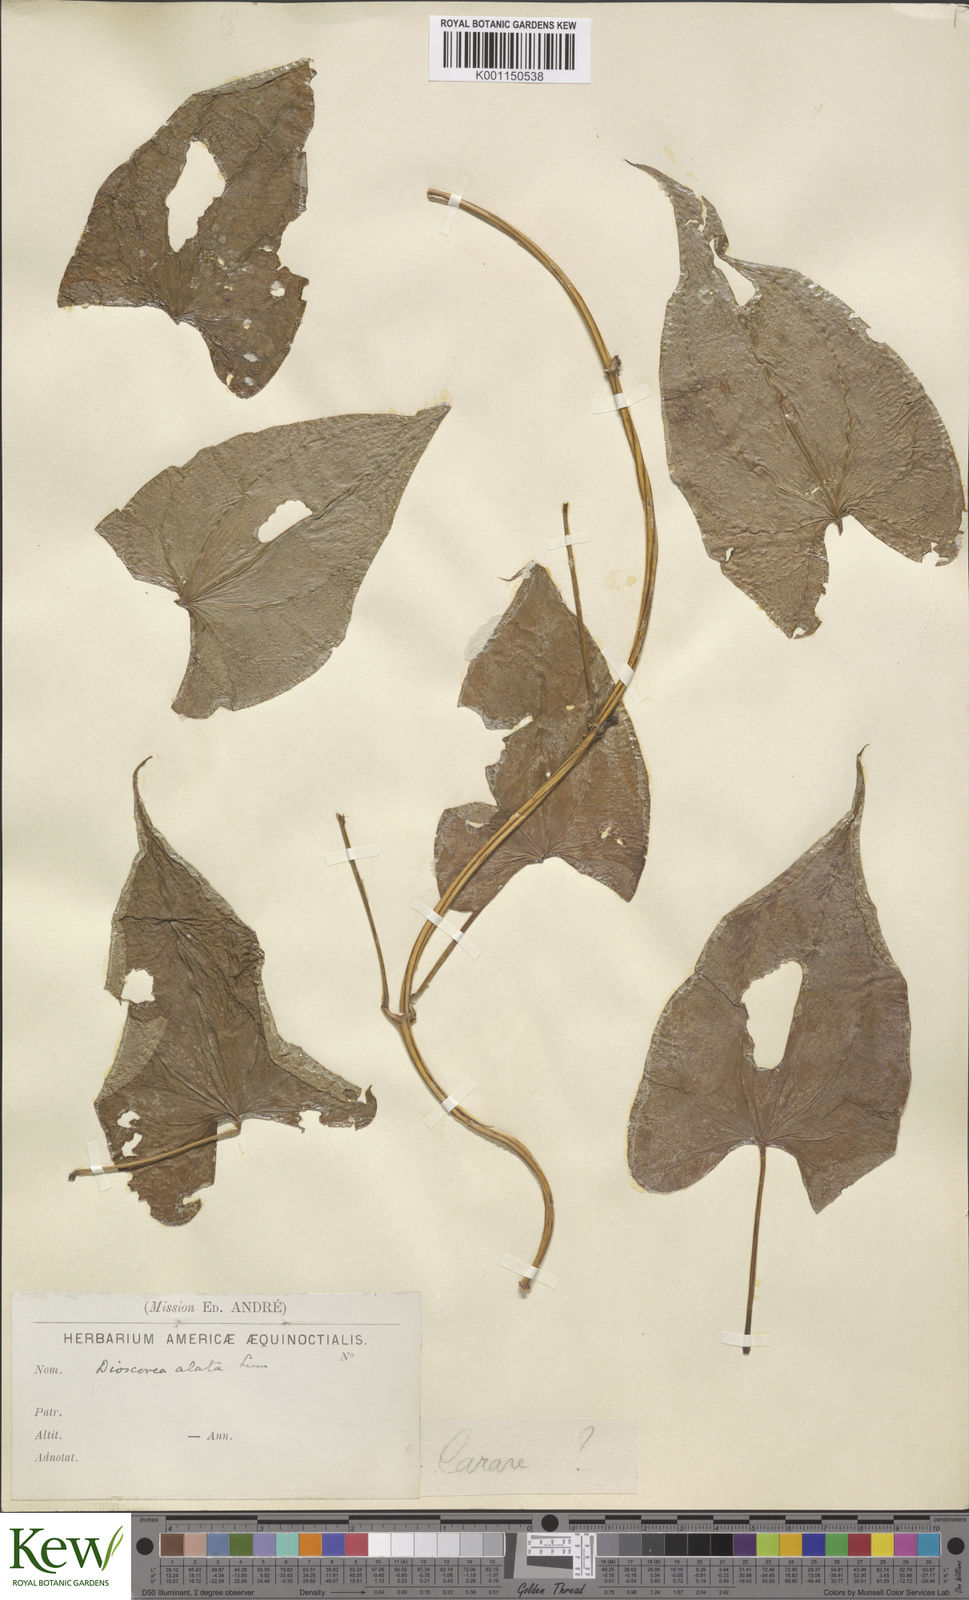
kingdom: Plantae
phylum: Tracheophyta
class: Liliopsida
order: Dioscoreales
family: Dioscoreaceae
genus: Dioscorea
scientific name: Dioscorea alata
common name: Water yam
